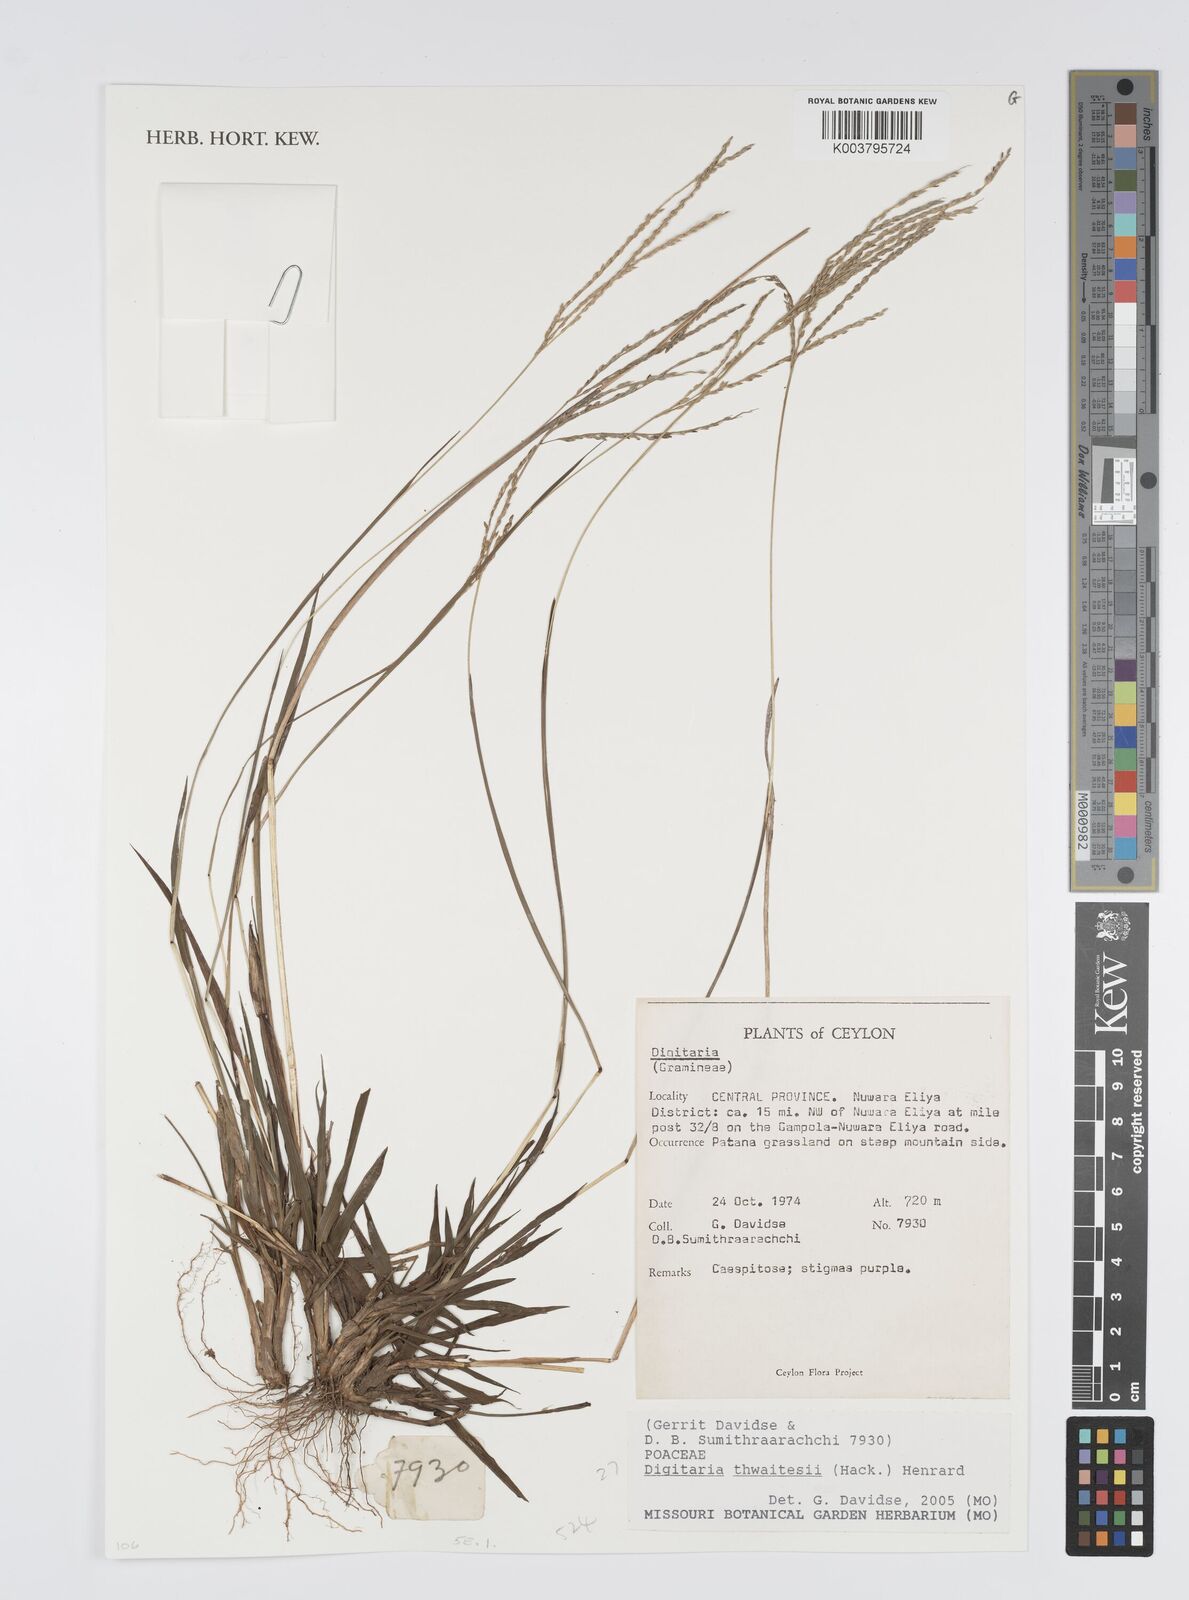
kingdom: Plantae
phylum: Tracheophyta
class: Liliopsida
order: Poales
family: Poaceae
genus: Digitaria
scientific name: Digitaria thwaitesii
